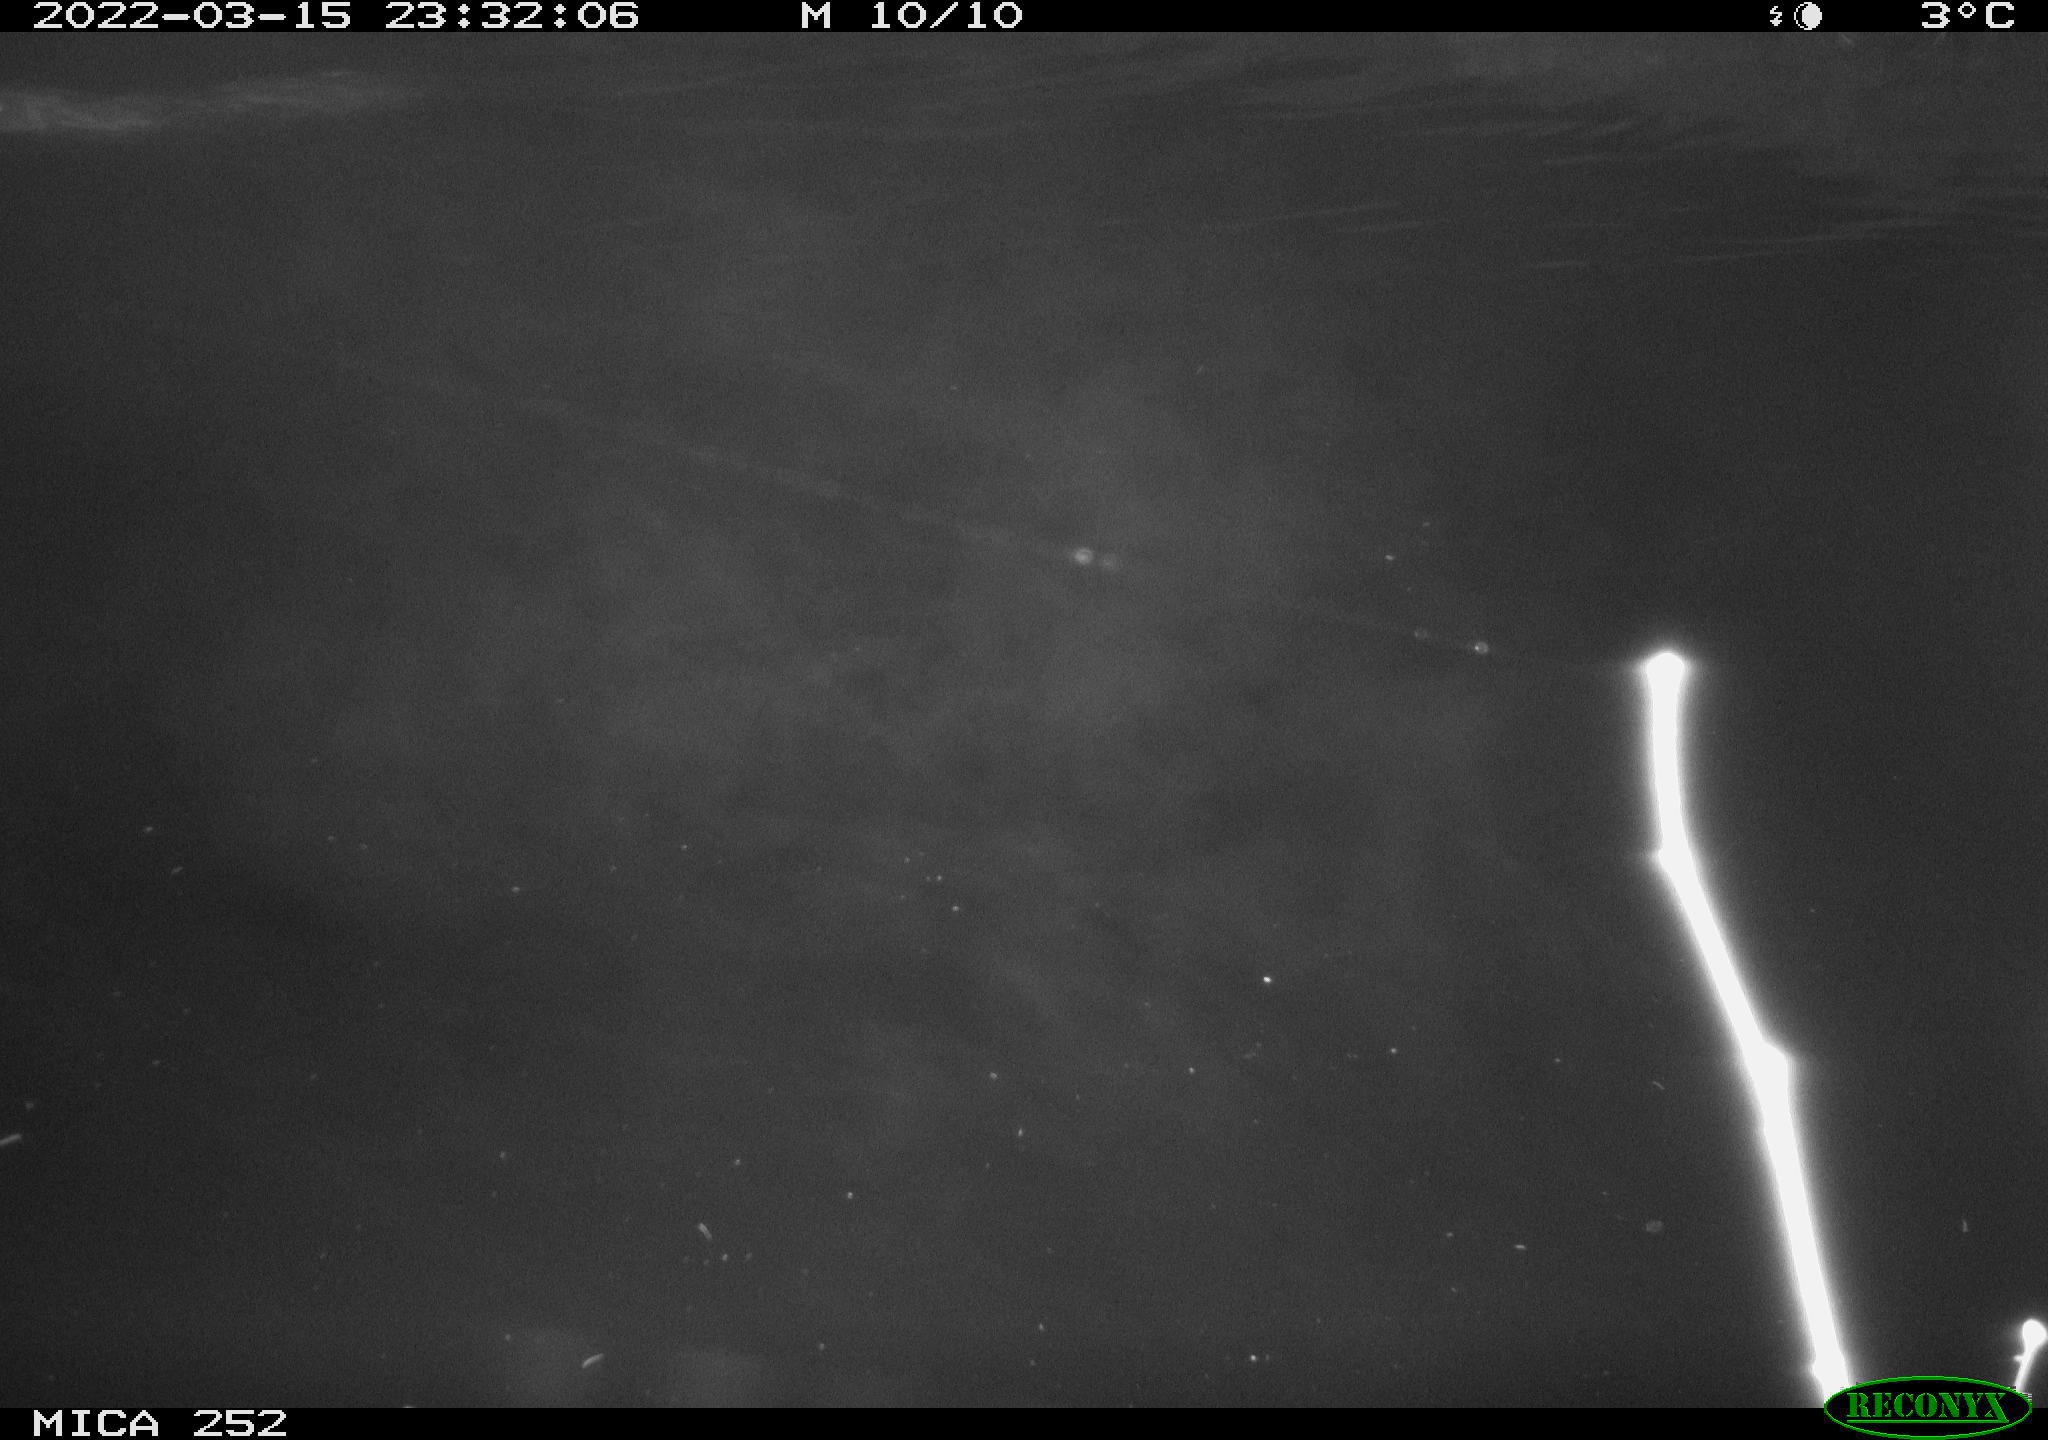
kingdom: Animalia
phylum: Chordata
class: Aves
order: Anseriformes
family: Anatidae
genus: Anas
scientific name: Anas platyrhynchos
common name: Mallard
